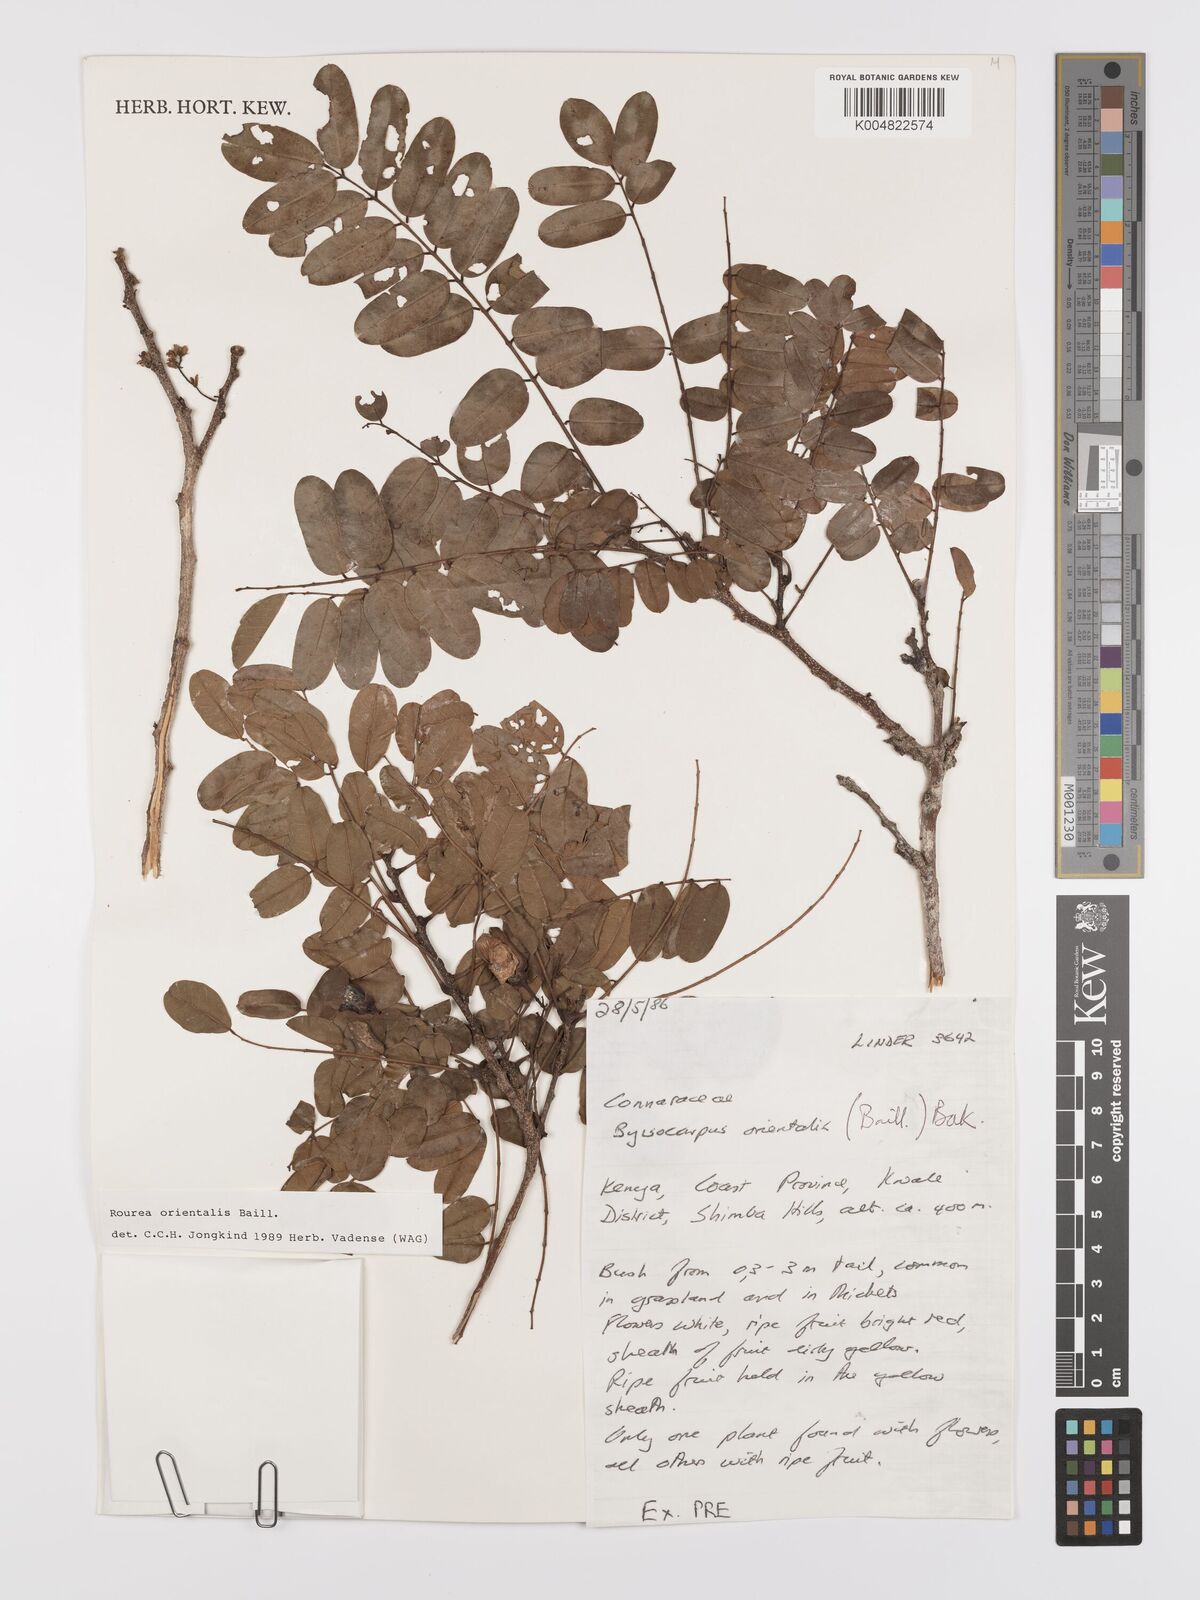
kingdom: Plantae
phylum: Tracheophyta
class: Magnoliopsida
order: Oxalidales
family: Connaraceae
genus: Rourea
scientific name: Rourea orientalis
